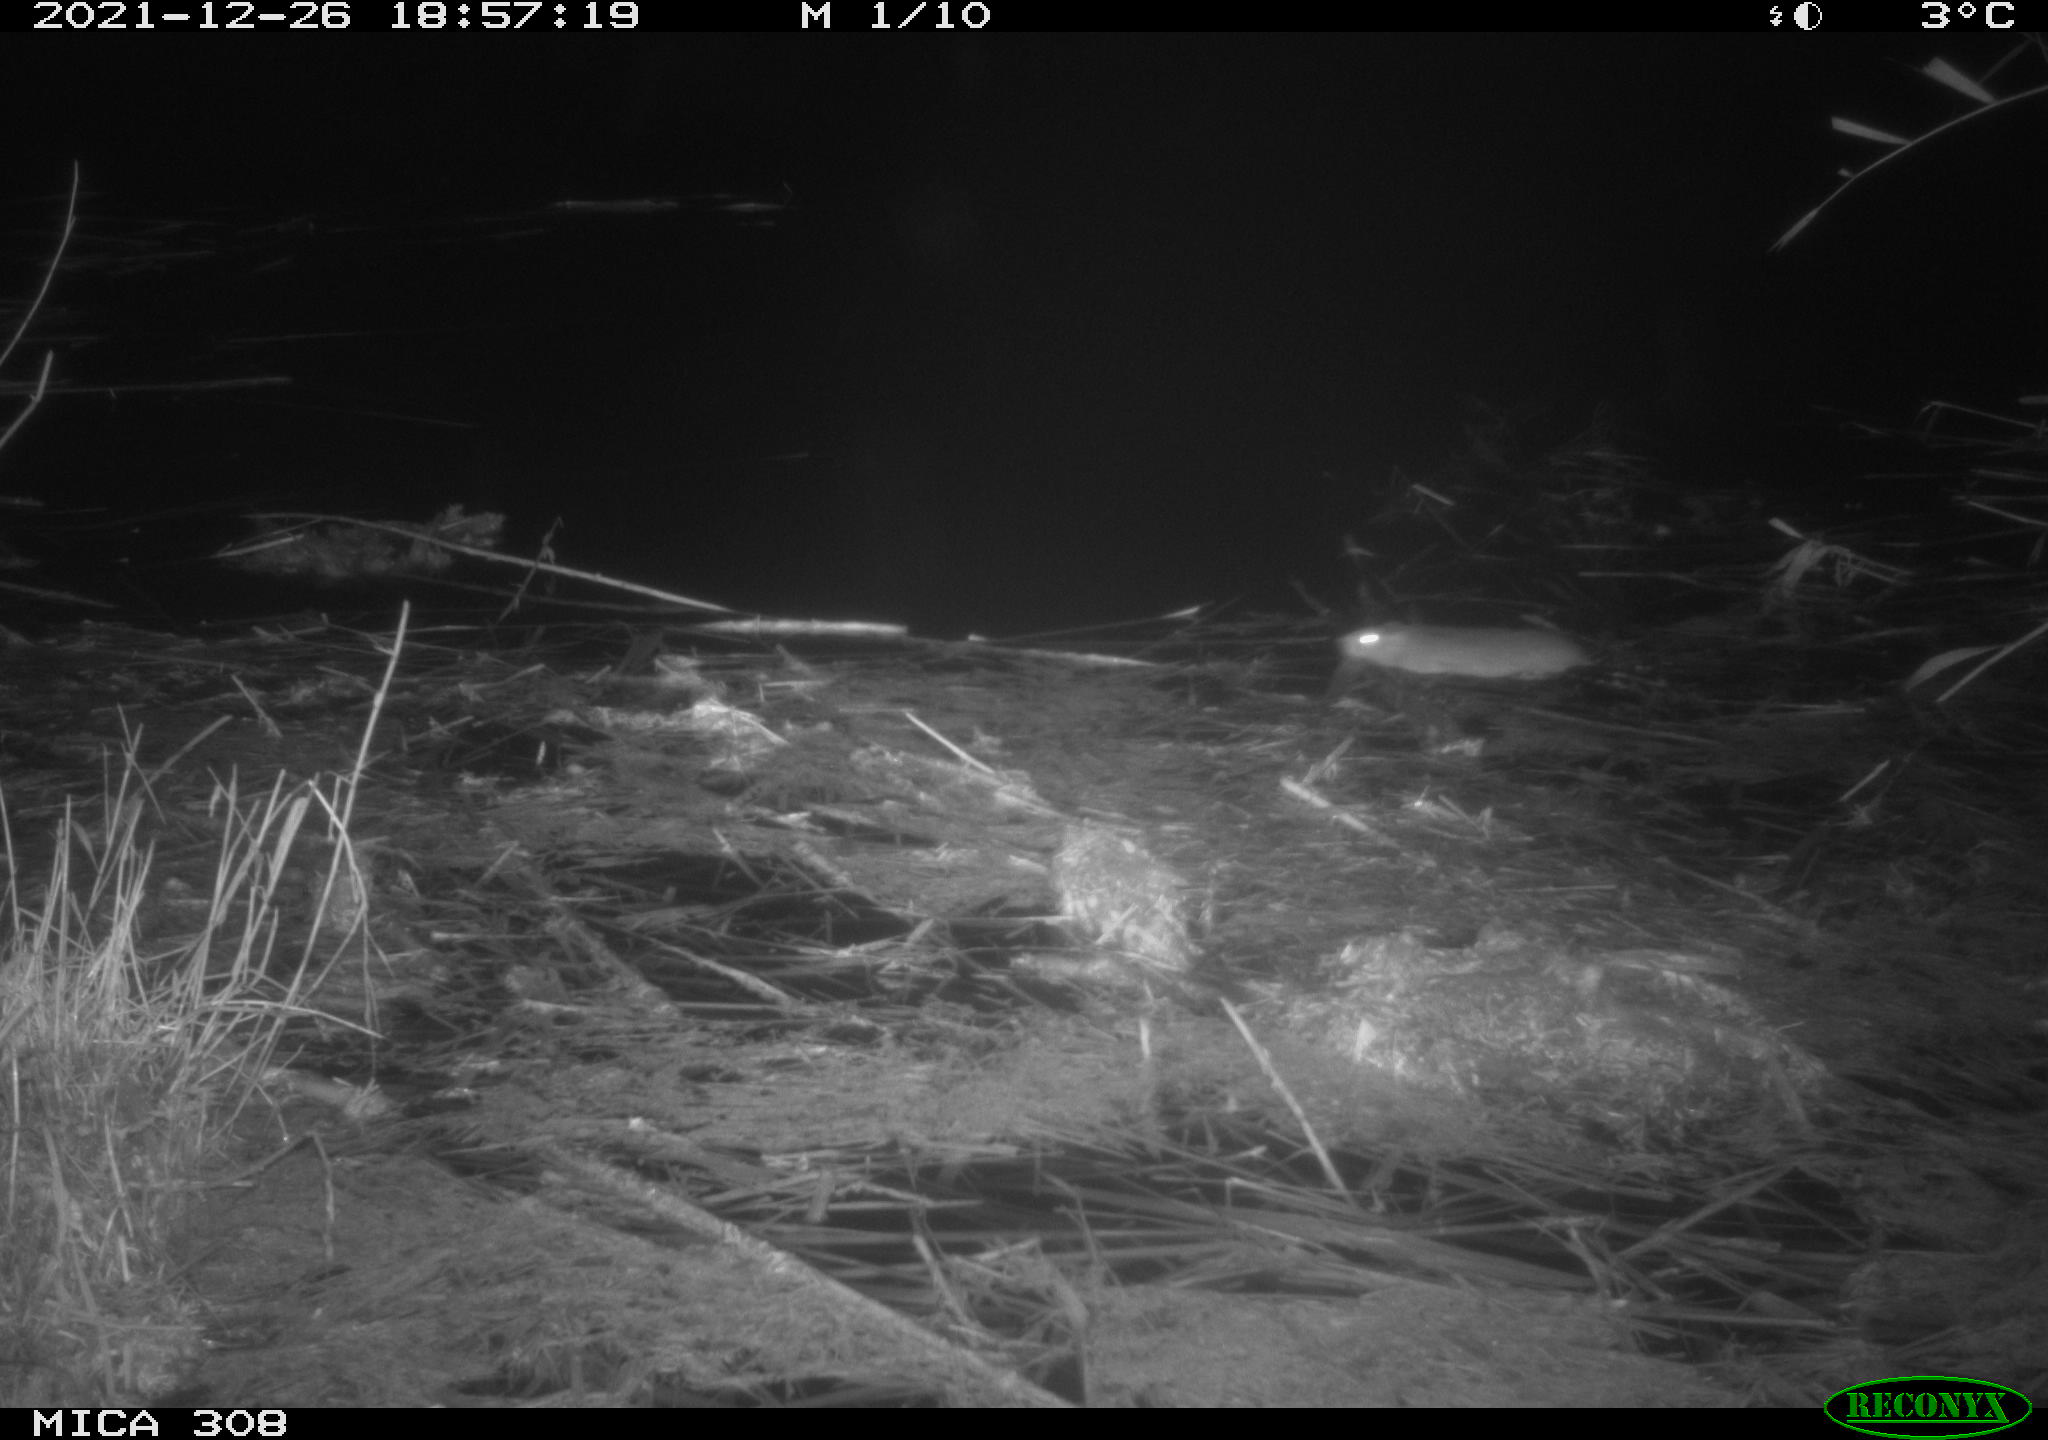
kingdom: Animalia
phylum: Chordata
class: Mammalia
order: Rodentia
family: Muridae
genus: Rattus
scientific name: Rattus norvegicus
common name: Brown rat
